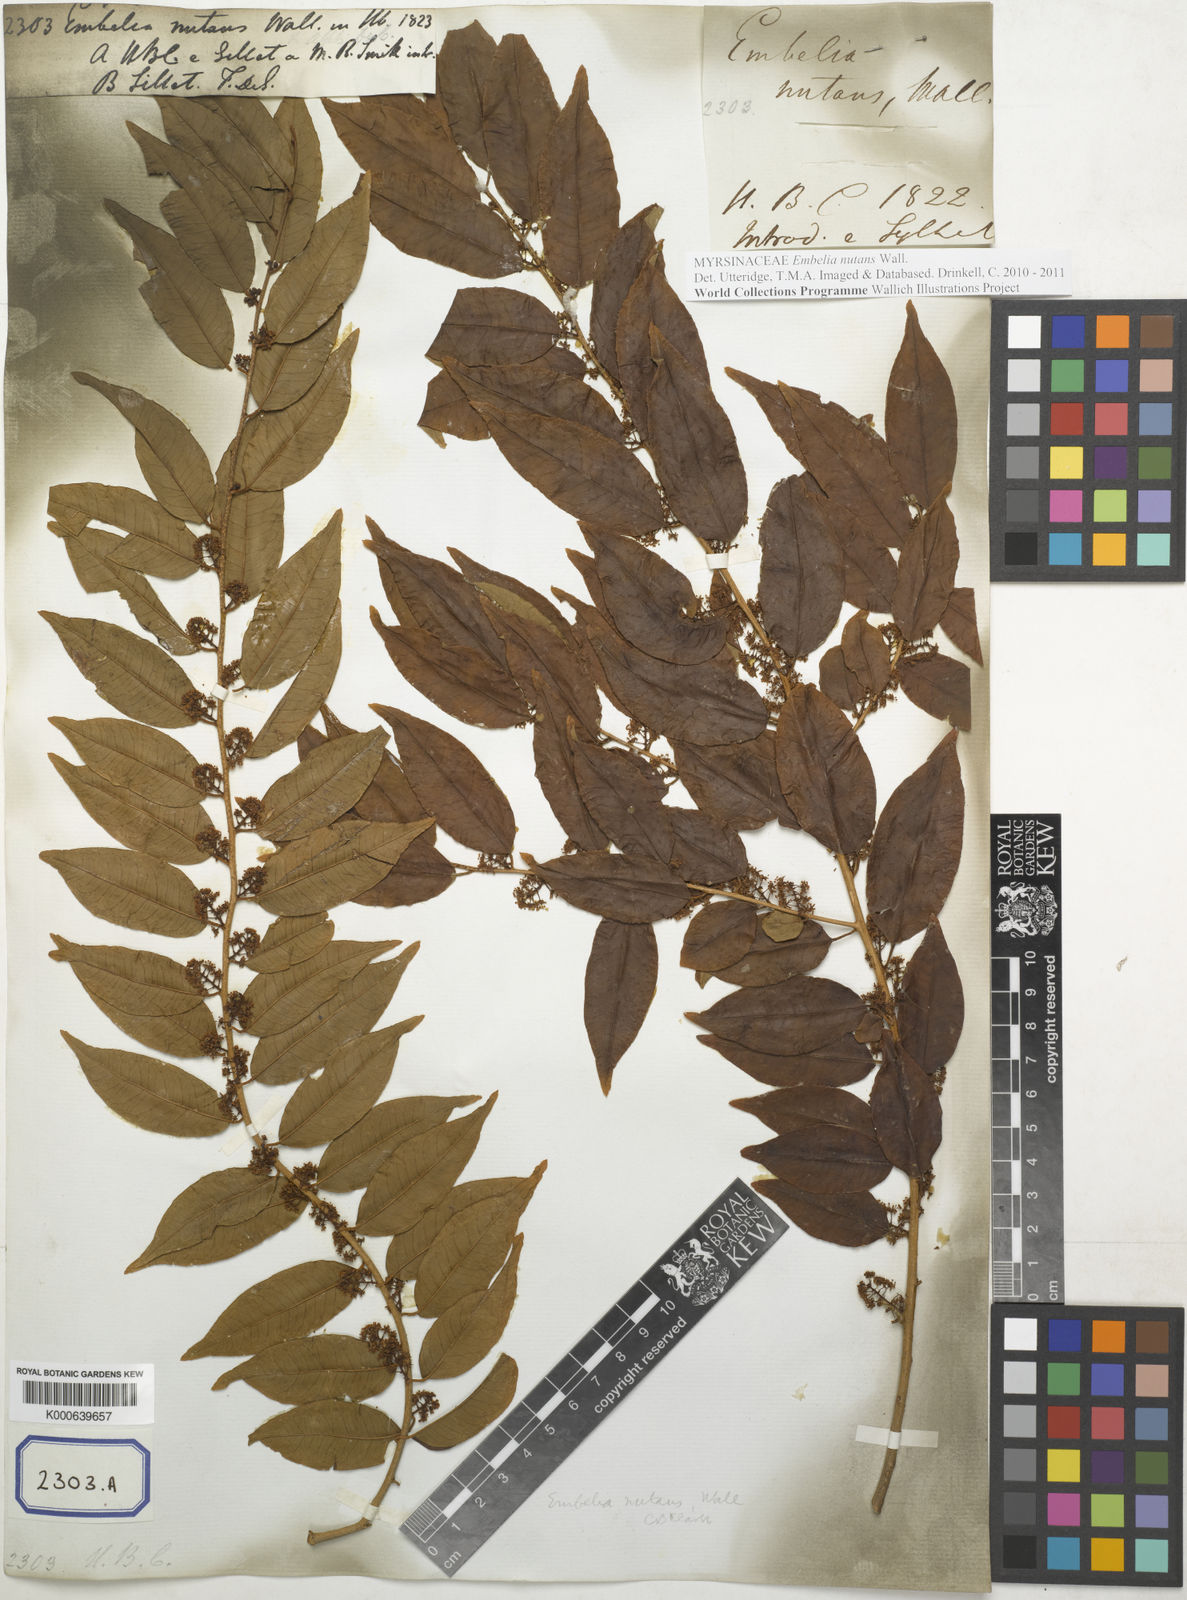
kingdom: Plantae
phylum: Tracheophyta
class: Magnoliopsida
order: Ericales
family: Primulaceae
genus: Embelia
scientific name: Embelia nutans
